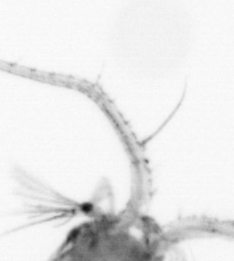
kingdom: Animalia
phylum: Arthropoda
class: Copepoda
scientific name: Copepoda
